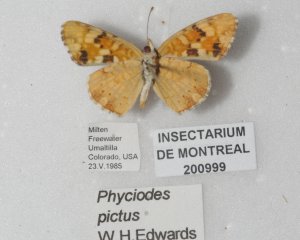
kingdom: Animalia
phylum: Arthropoda
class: Insecta
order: Lepidoptera
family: Nymphalidae
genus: Phyciodes
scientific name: Phyciodes picta
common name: Painted Crescent
